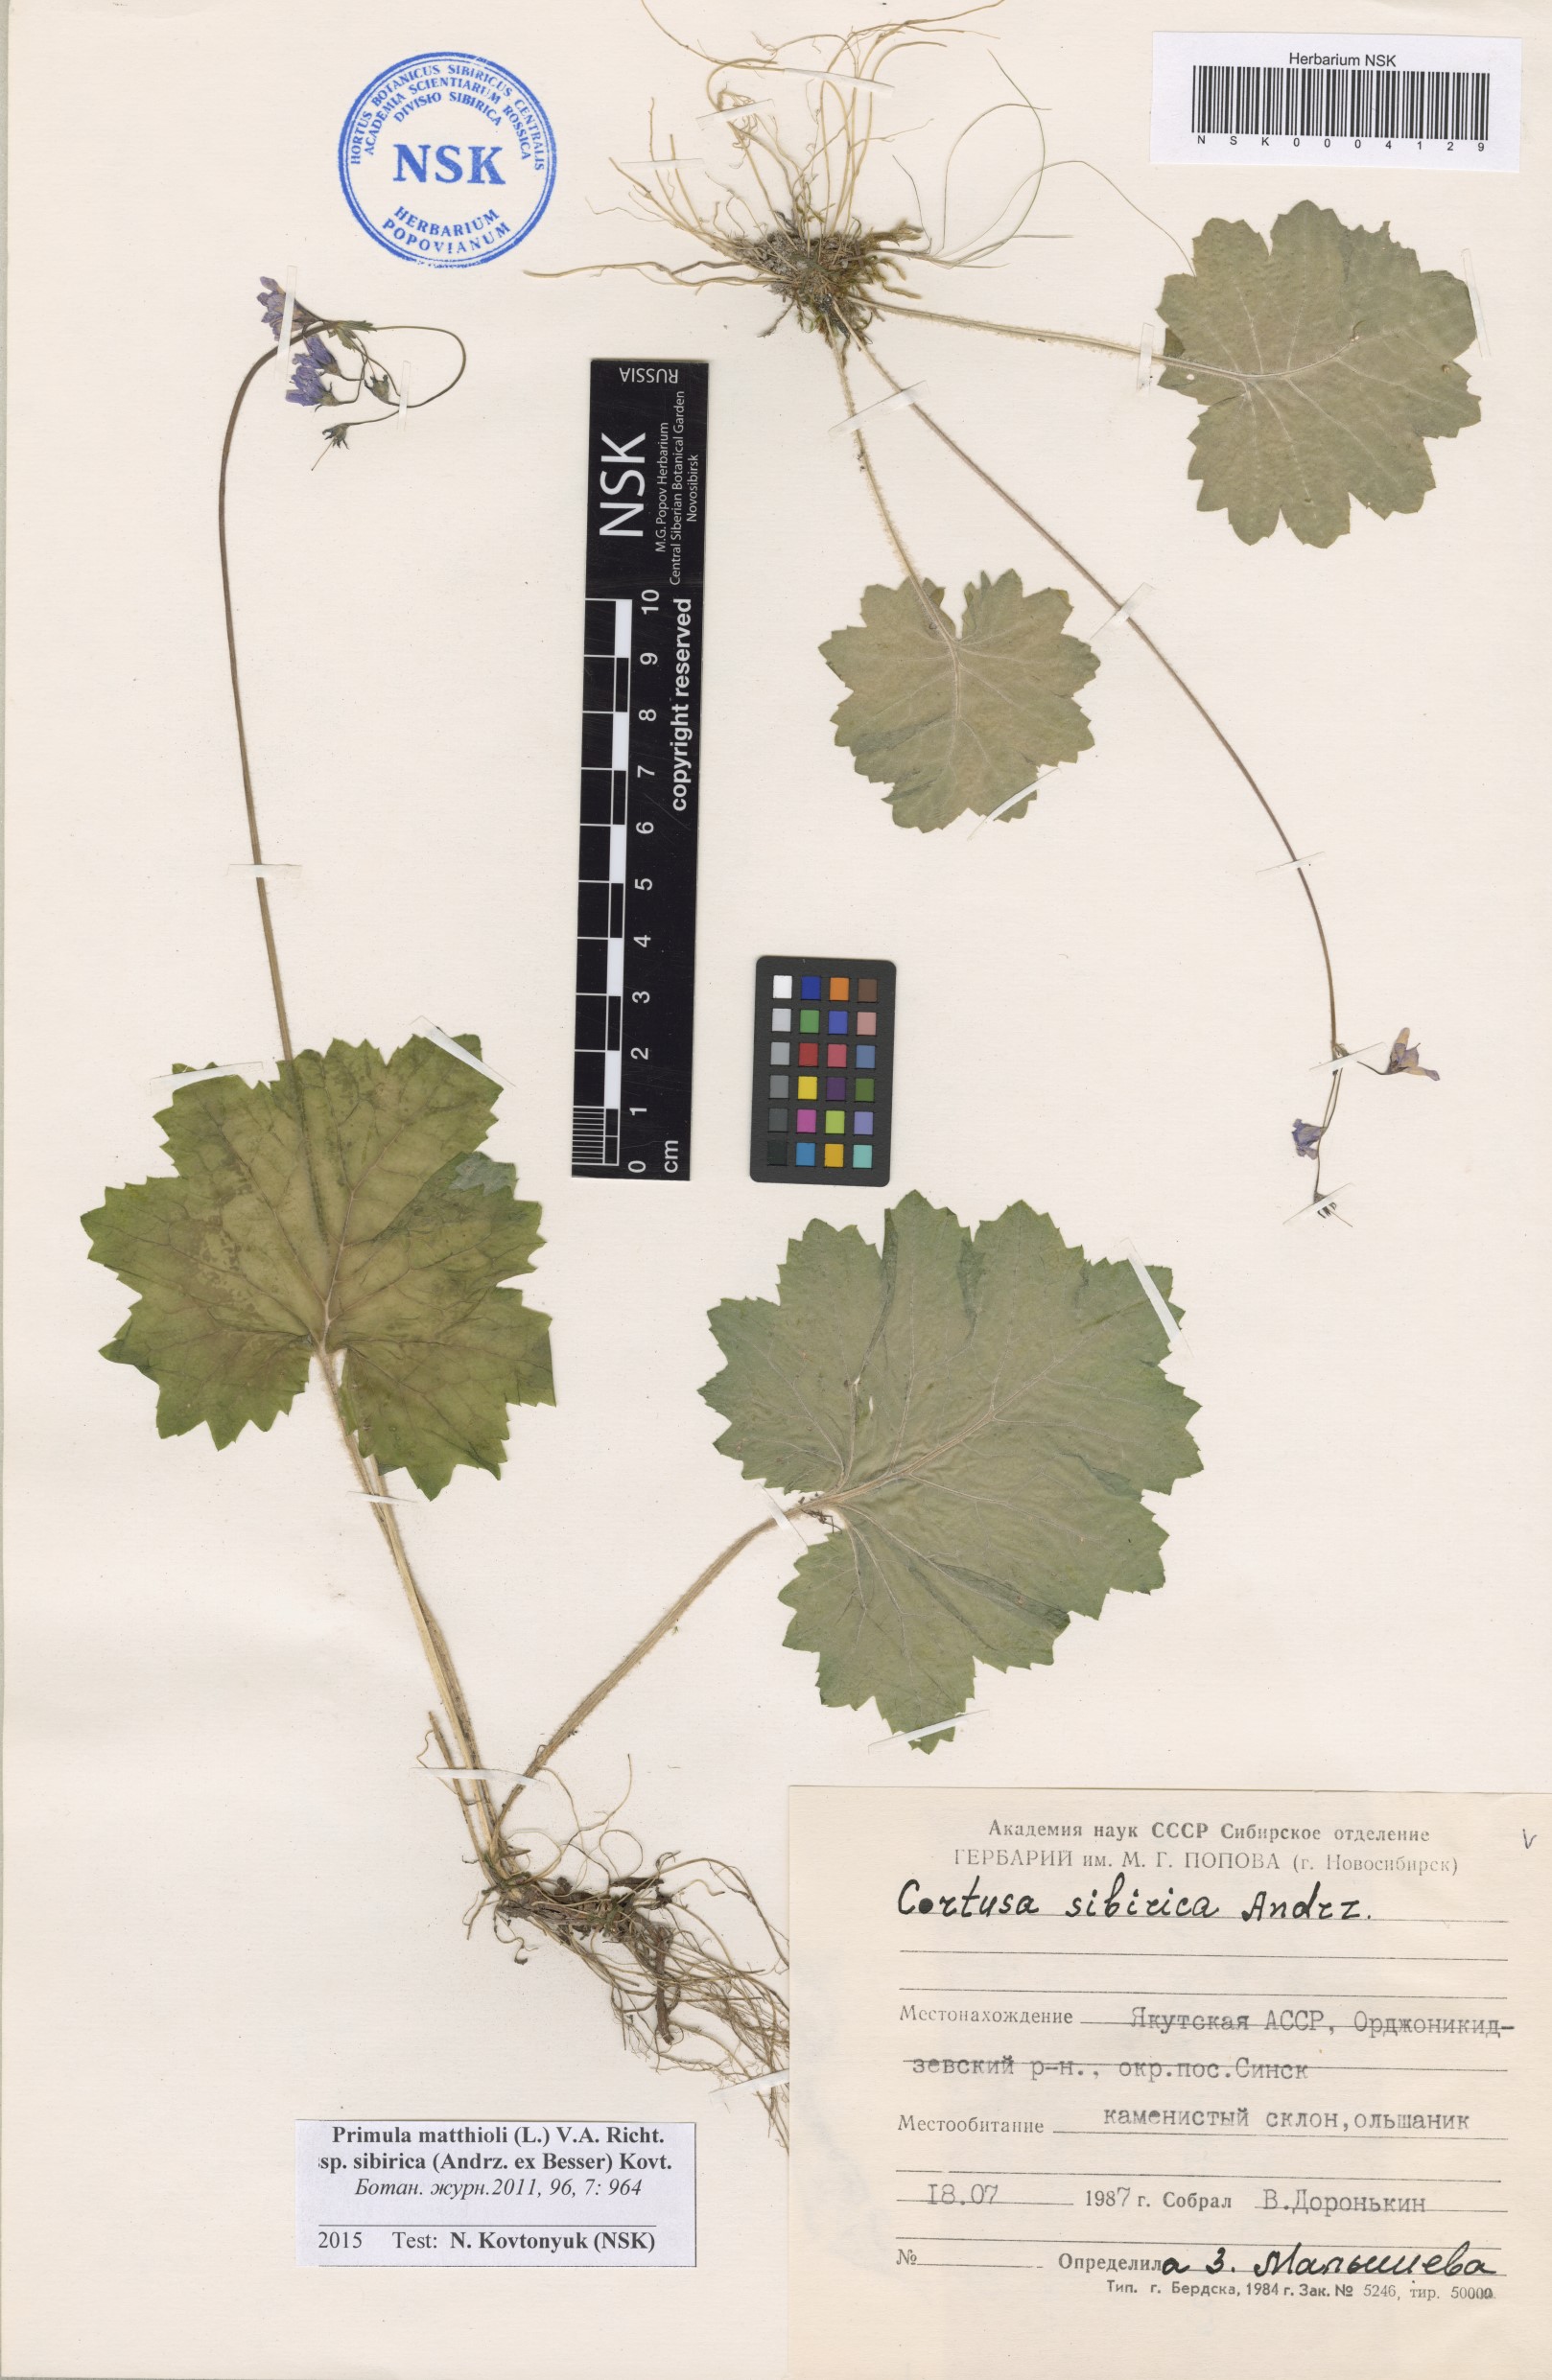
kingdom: Plantae
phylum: Tracheophyta
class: Magnoliopsida
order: Ericales
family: Primulaceae
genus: Primula
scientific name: Primula matthioli
